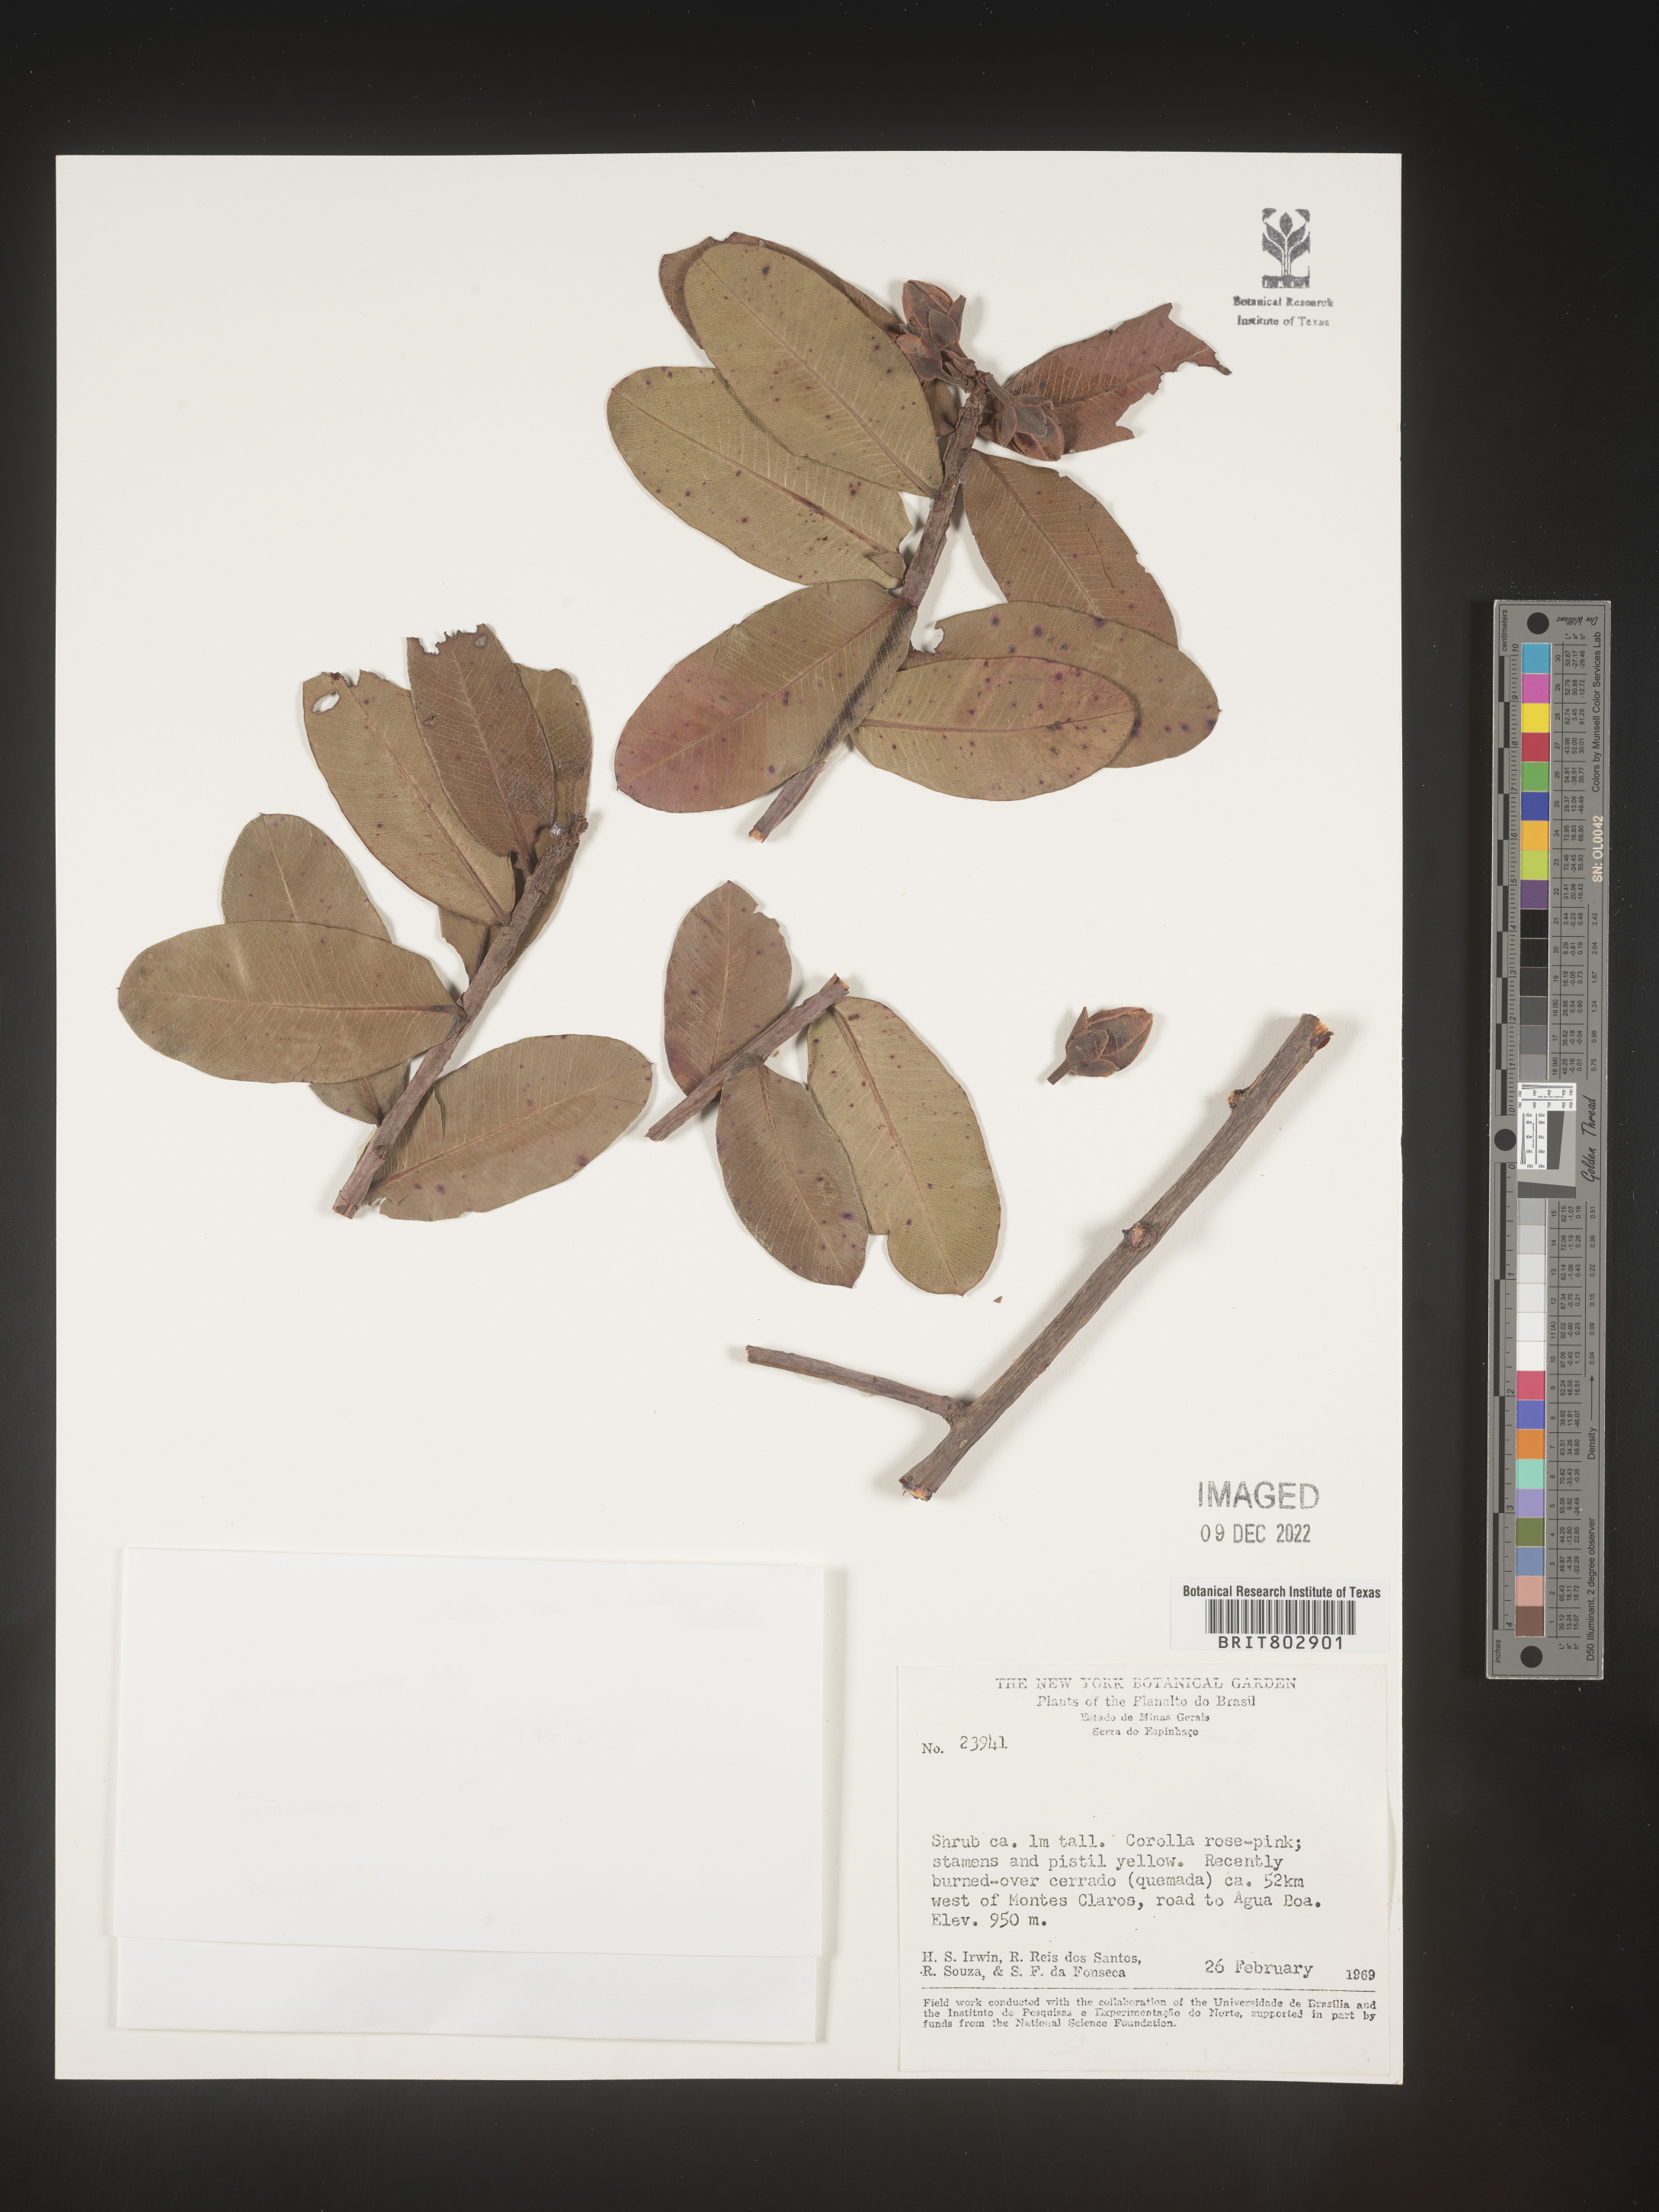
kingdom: Plantae
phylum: Tracheophyta
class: Magnoliopsida
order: Malpighiales
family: Calophyllaceae
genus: Kielmeyera
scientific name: Kielmeyera
